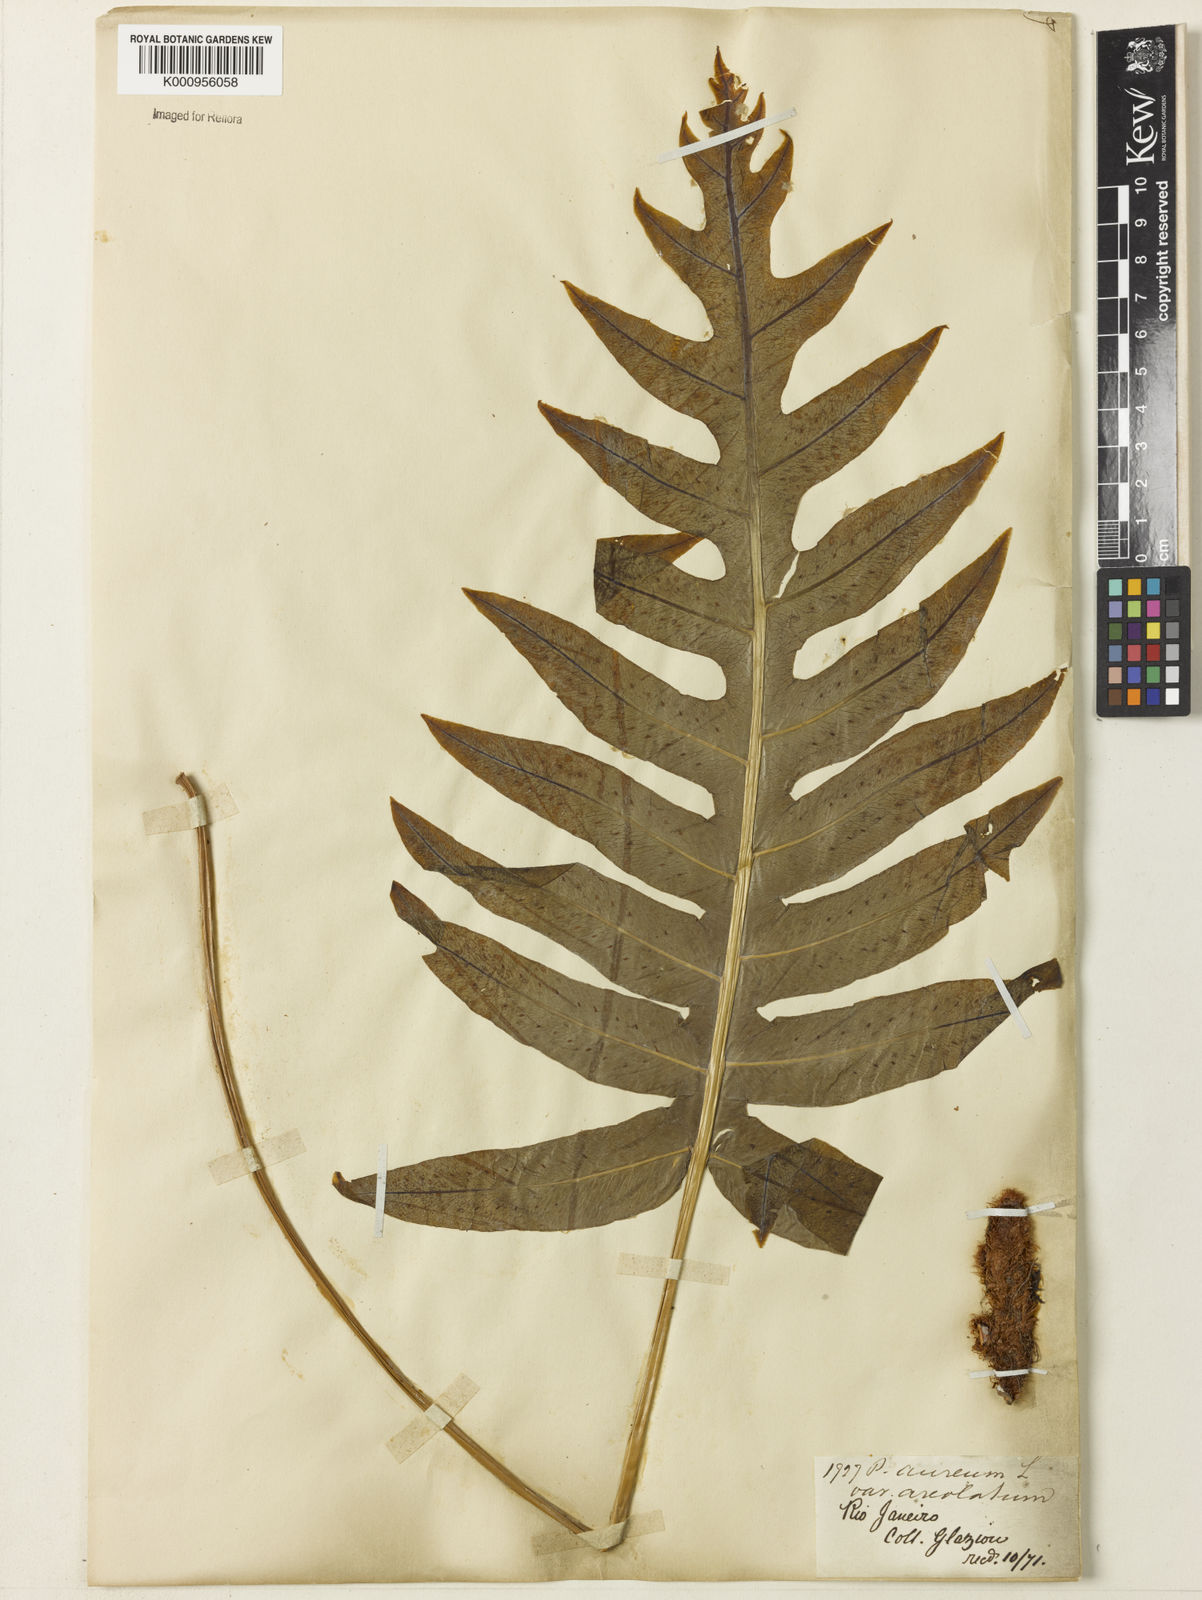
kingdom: Plantae
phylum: Tracheophyta
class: Polypodiopsida
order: Polypodiales
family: Polypodiaceae
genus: Phlebodium
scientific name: Phlebodium aureum
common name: Gold-foot fern
